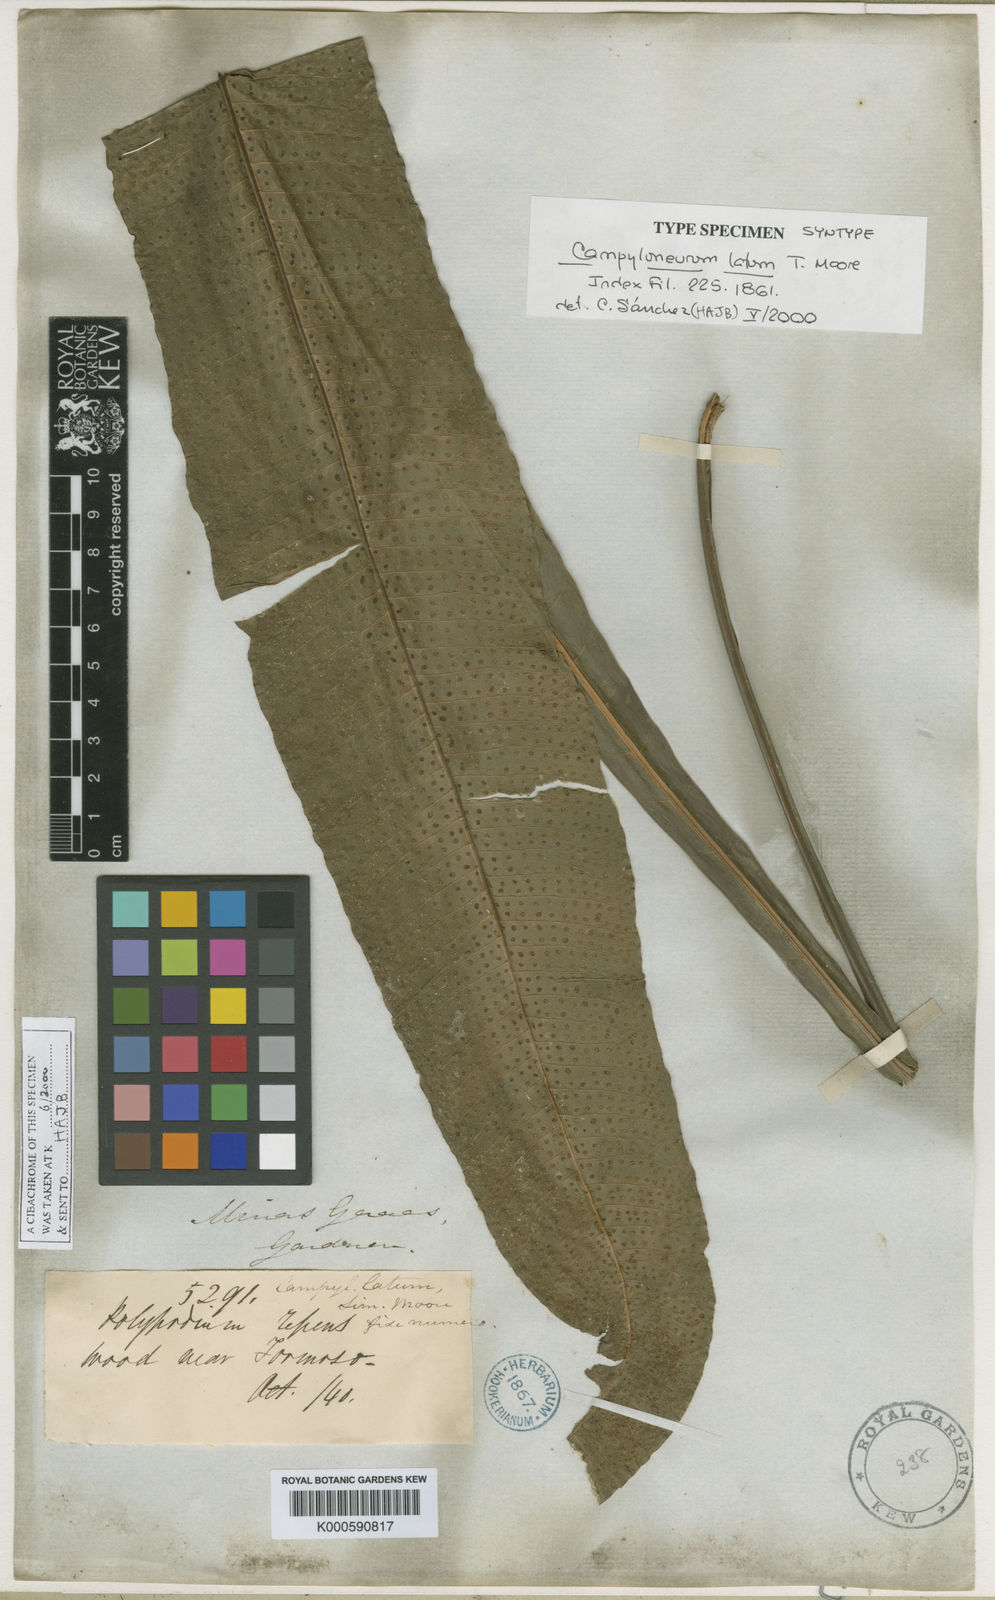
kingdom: Plantae
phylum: Tracheophyta
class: Polypodiopsida
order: Polypodiales
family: Polypodiaceae
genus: Campyloneurum
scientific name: Campyloneurum brevifolium
